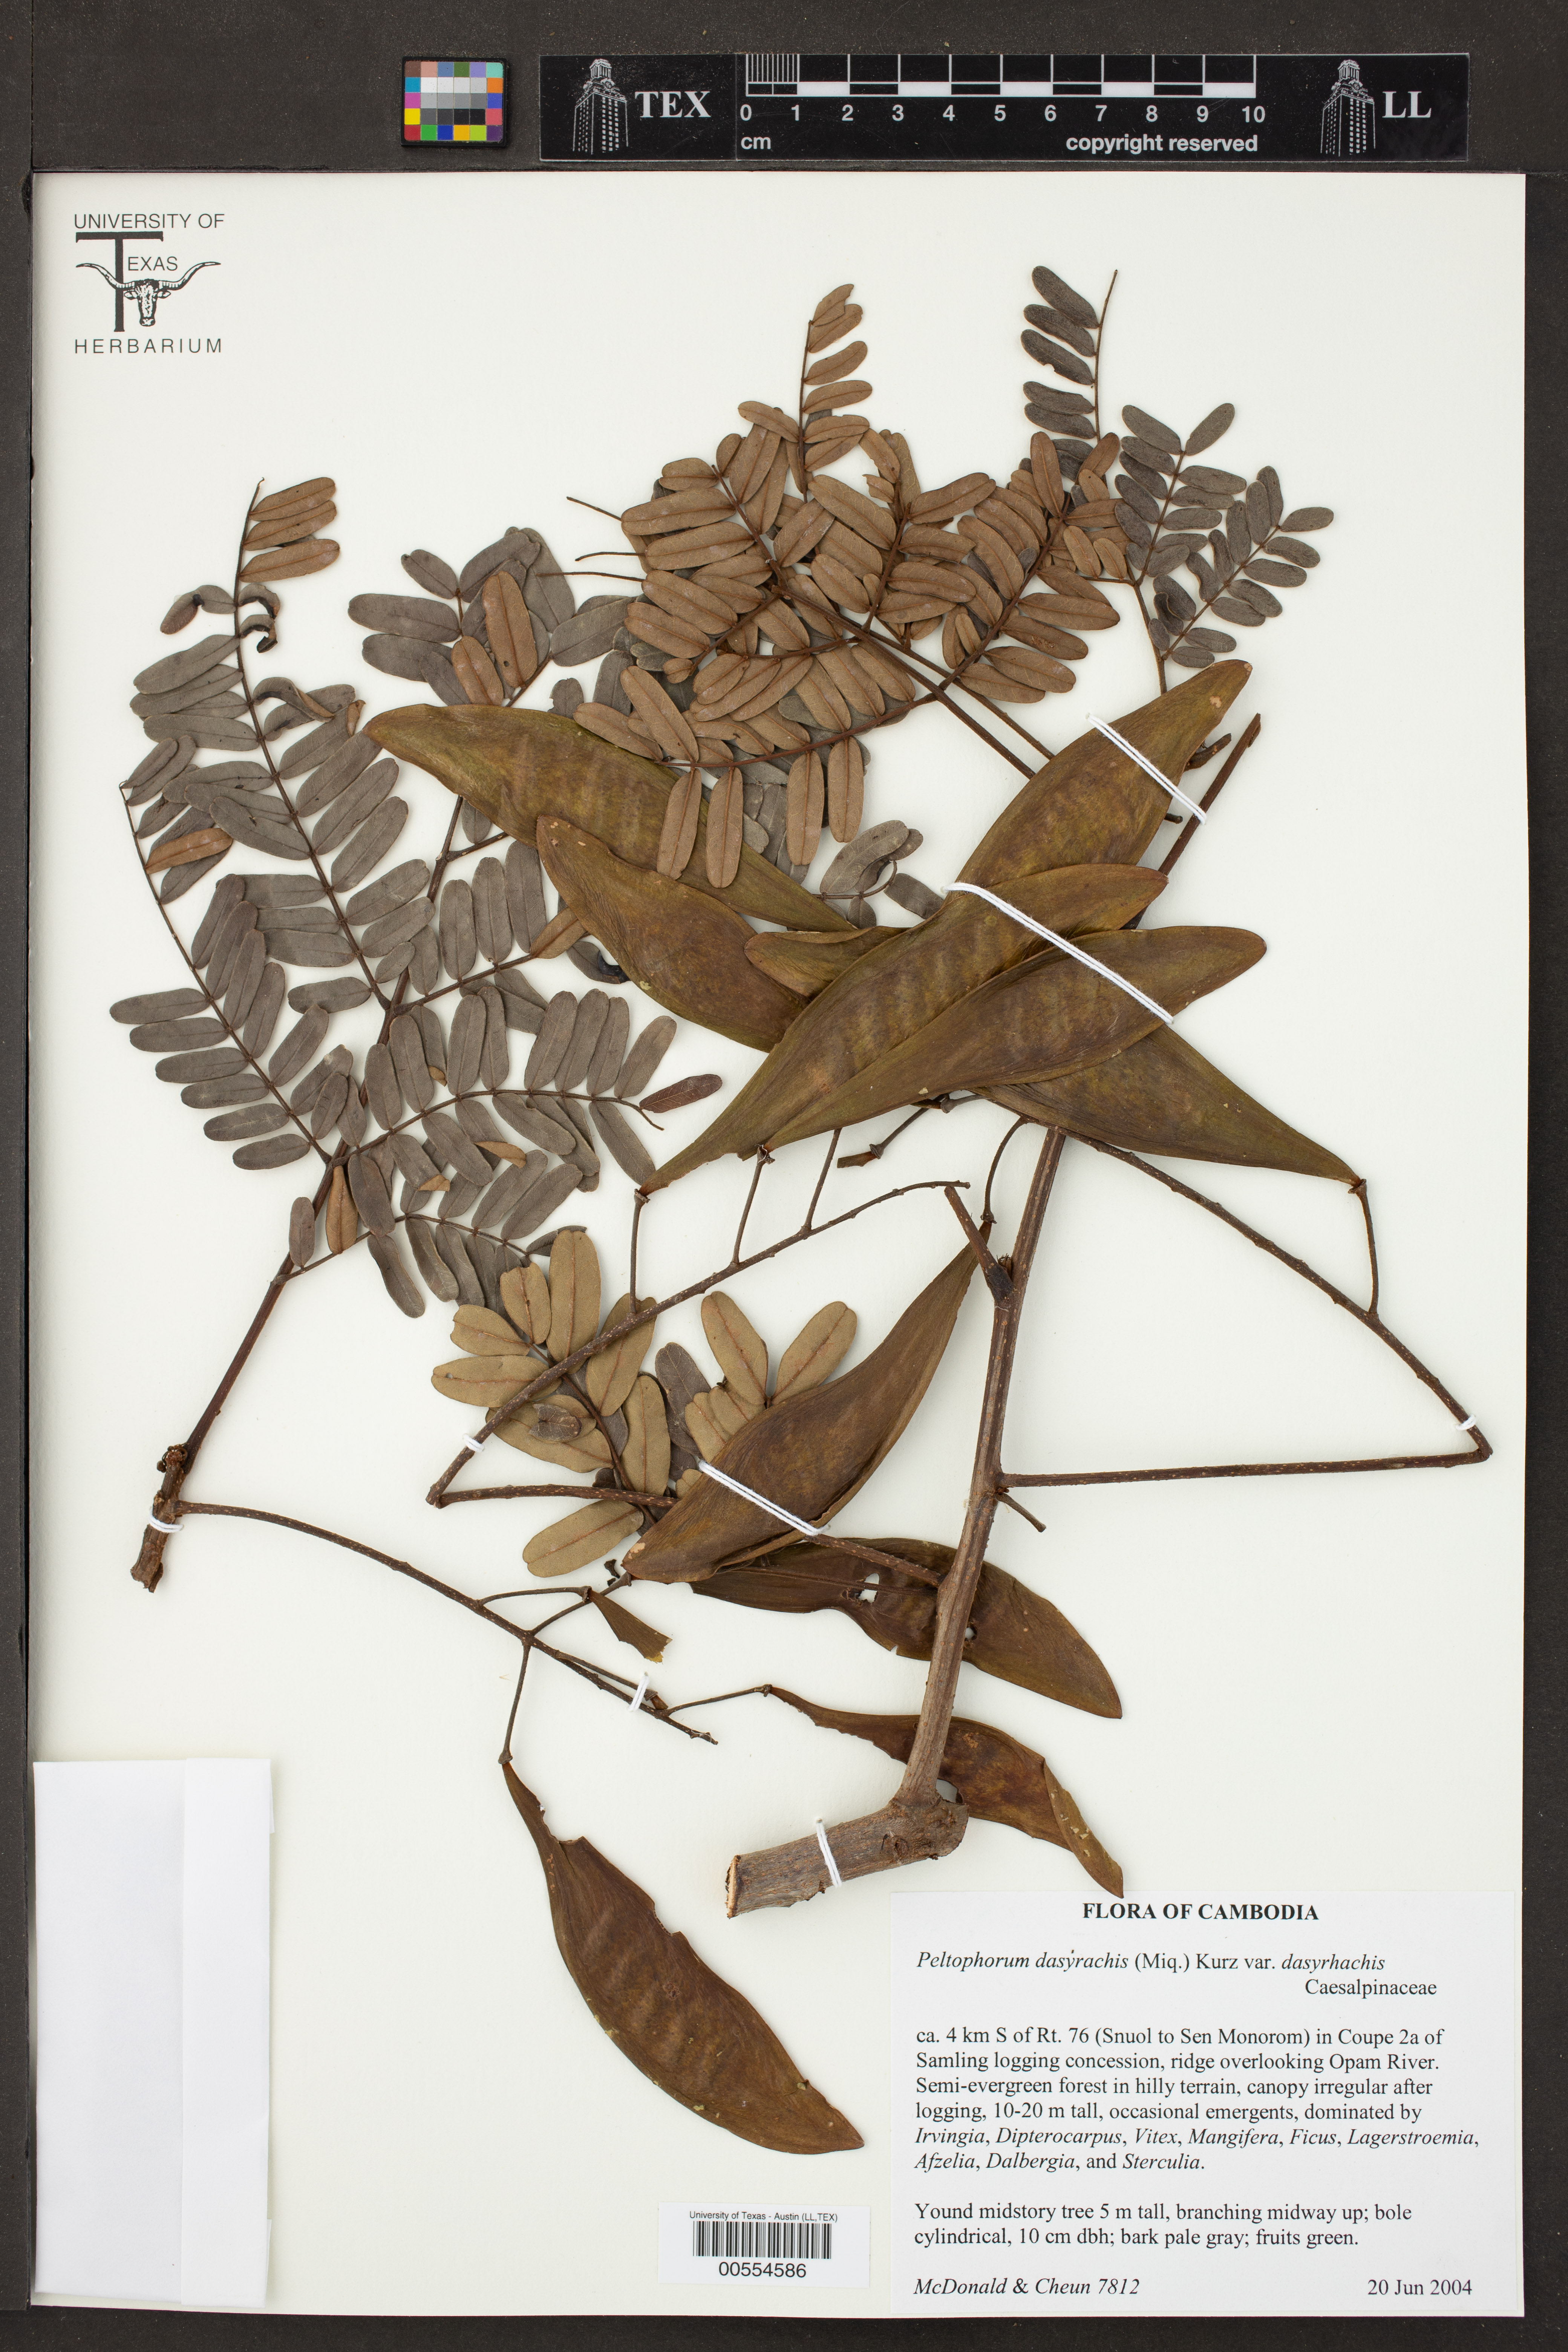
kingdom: Plantae
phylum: Tracheophyta
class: Magnoliopsida
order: Fabales
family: Fabaceae
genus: Peltophorum
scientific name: Peltophorum dasyrhachis
